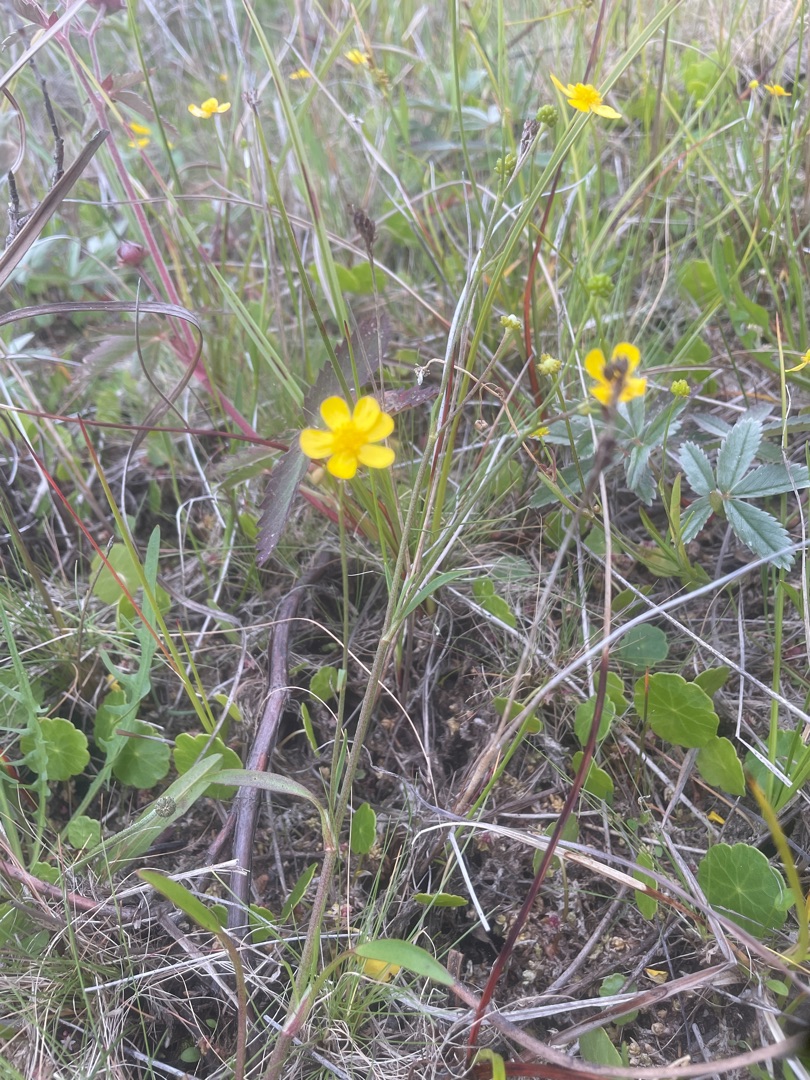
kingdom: Plantae
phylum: Tracheophyta
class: Magnoliopsida
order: Ranunculales
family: Ranunculaceae
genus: Ranunculus
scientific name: Ranunculus flammula
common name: Kær-ranunkel
